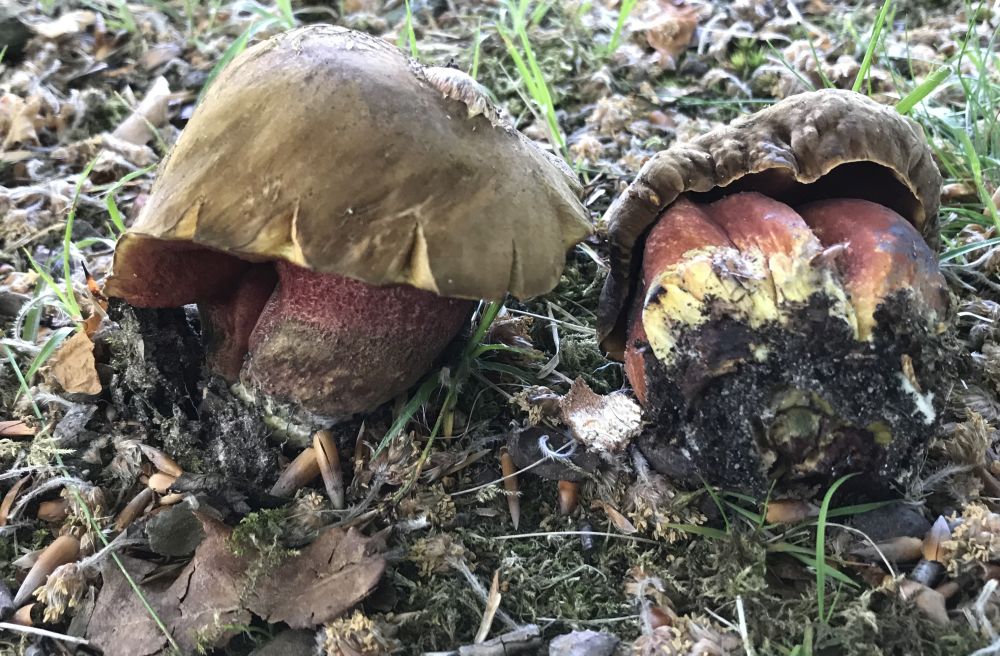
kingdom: Fungi
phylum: Basidiomycota
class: Agaricomycetes
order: Boletales
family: Boletaceae
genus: Neoboletus
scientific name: Neoboletus erythropus
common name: punktstokket indigorørhat
